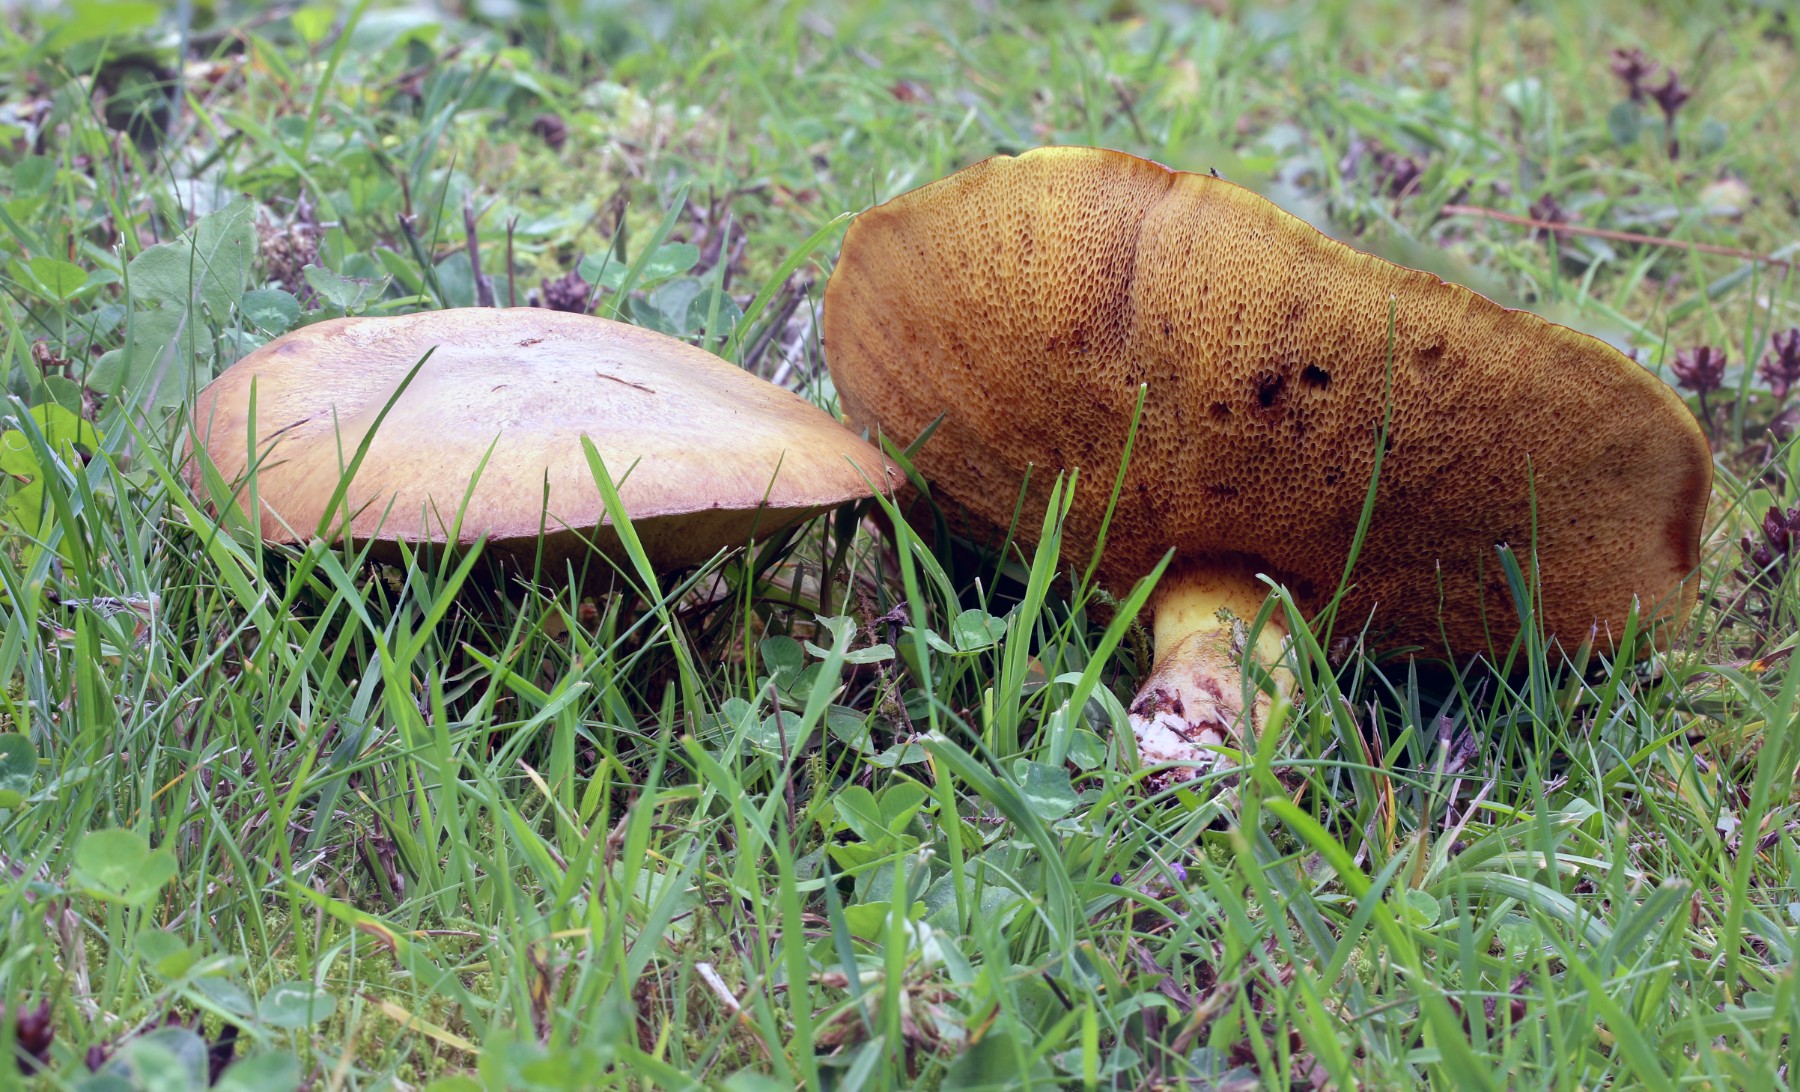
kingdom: Fungi
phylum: Basidiomycota
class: Agaricomycetes
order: Boletales
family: Suillaceae
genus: Suillus
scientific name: Suillus collinitus
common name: rosafodet slimrørhat
